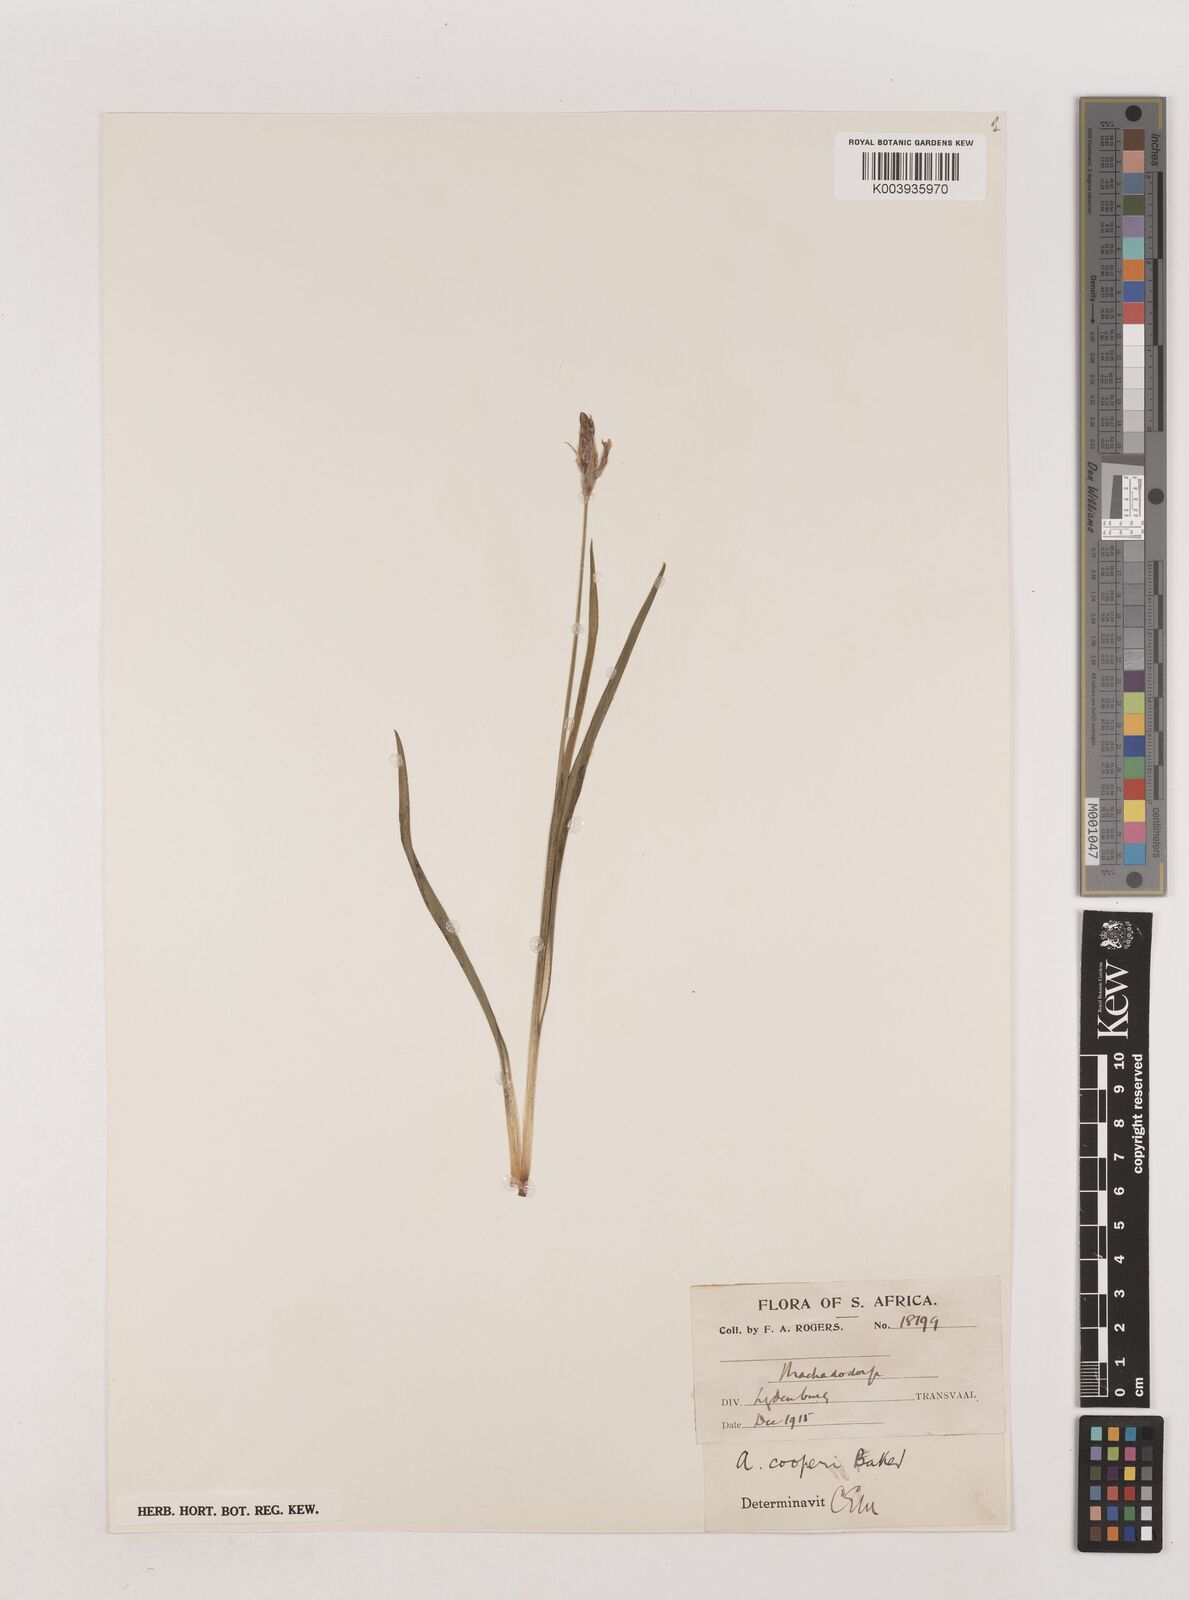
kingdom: Plantae
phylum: Tracheophyta
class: Liliopsida
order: Asparagales
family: Asparagaceae
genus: Chlorophytum
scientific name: Chlorophytum cooperi
